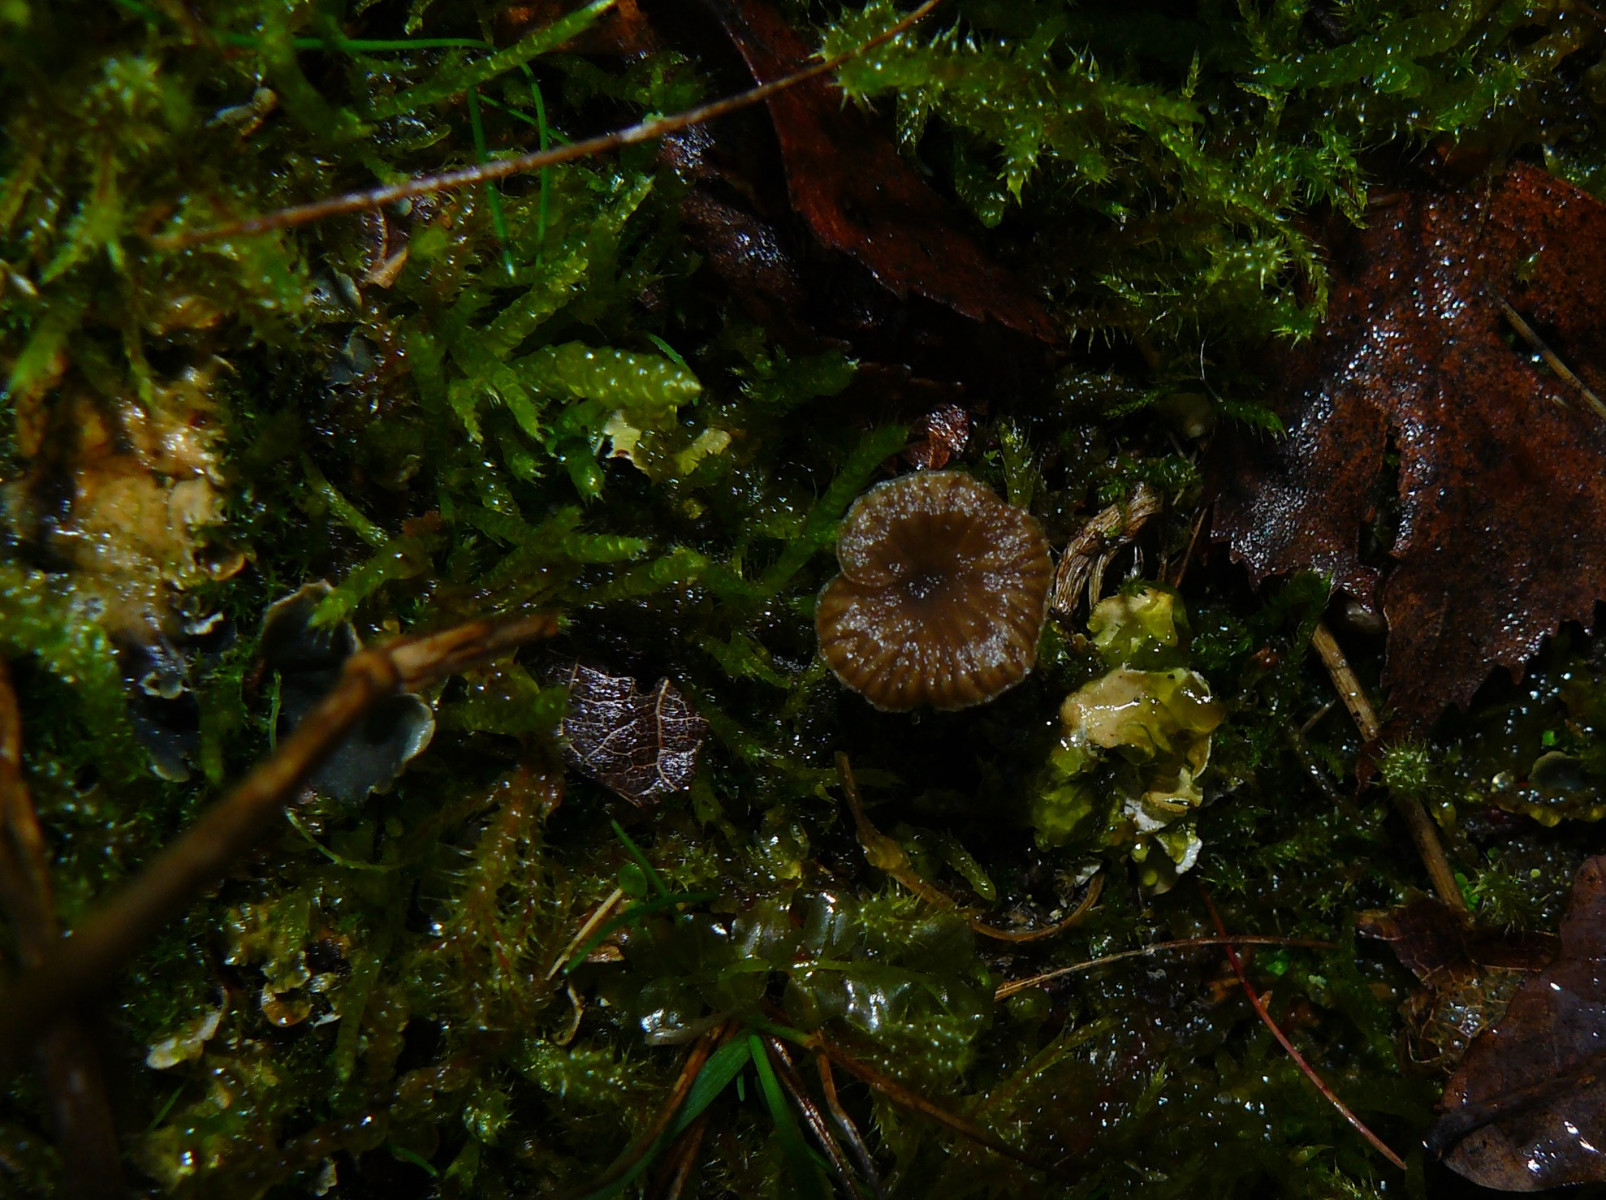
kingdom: Fungi
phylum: Basidiomycota
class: Agaricomycetes
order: Agaricales
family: Hygrophoraceae
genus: Arrhenia
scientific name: Arrhenia peltigerina
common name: skjoldlav-fontænehat
